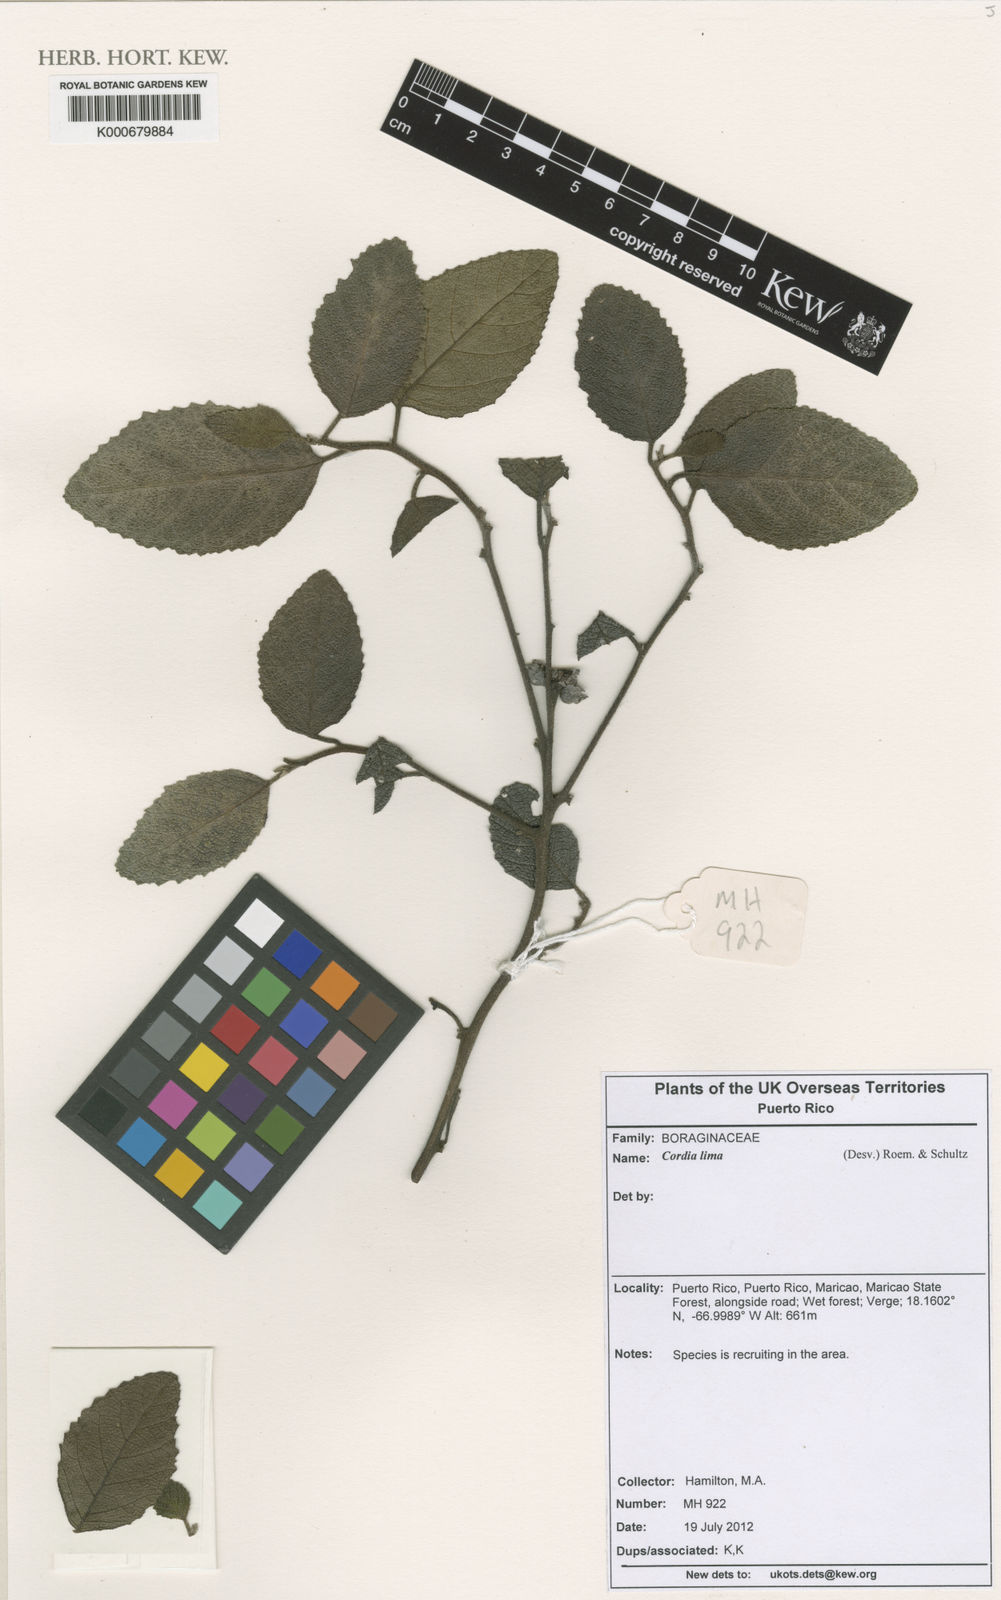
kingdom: Plantae
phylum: Tracheophyta
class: Magnoliopsida
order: Boraginales
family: Cordiaceae
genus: Varronia
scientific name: Varronia lima
